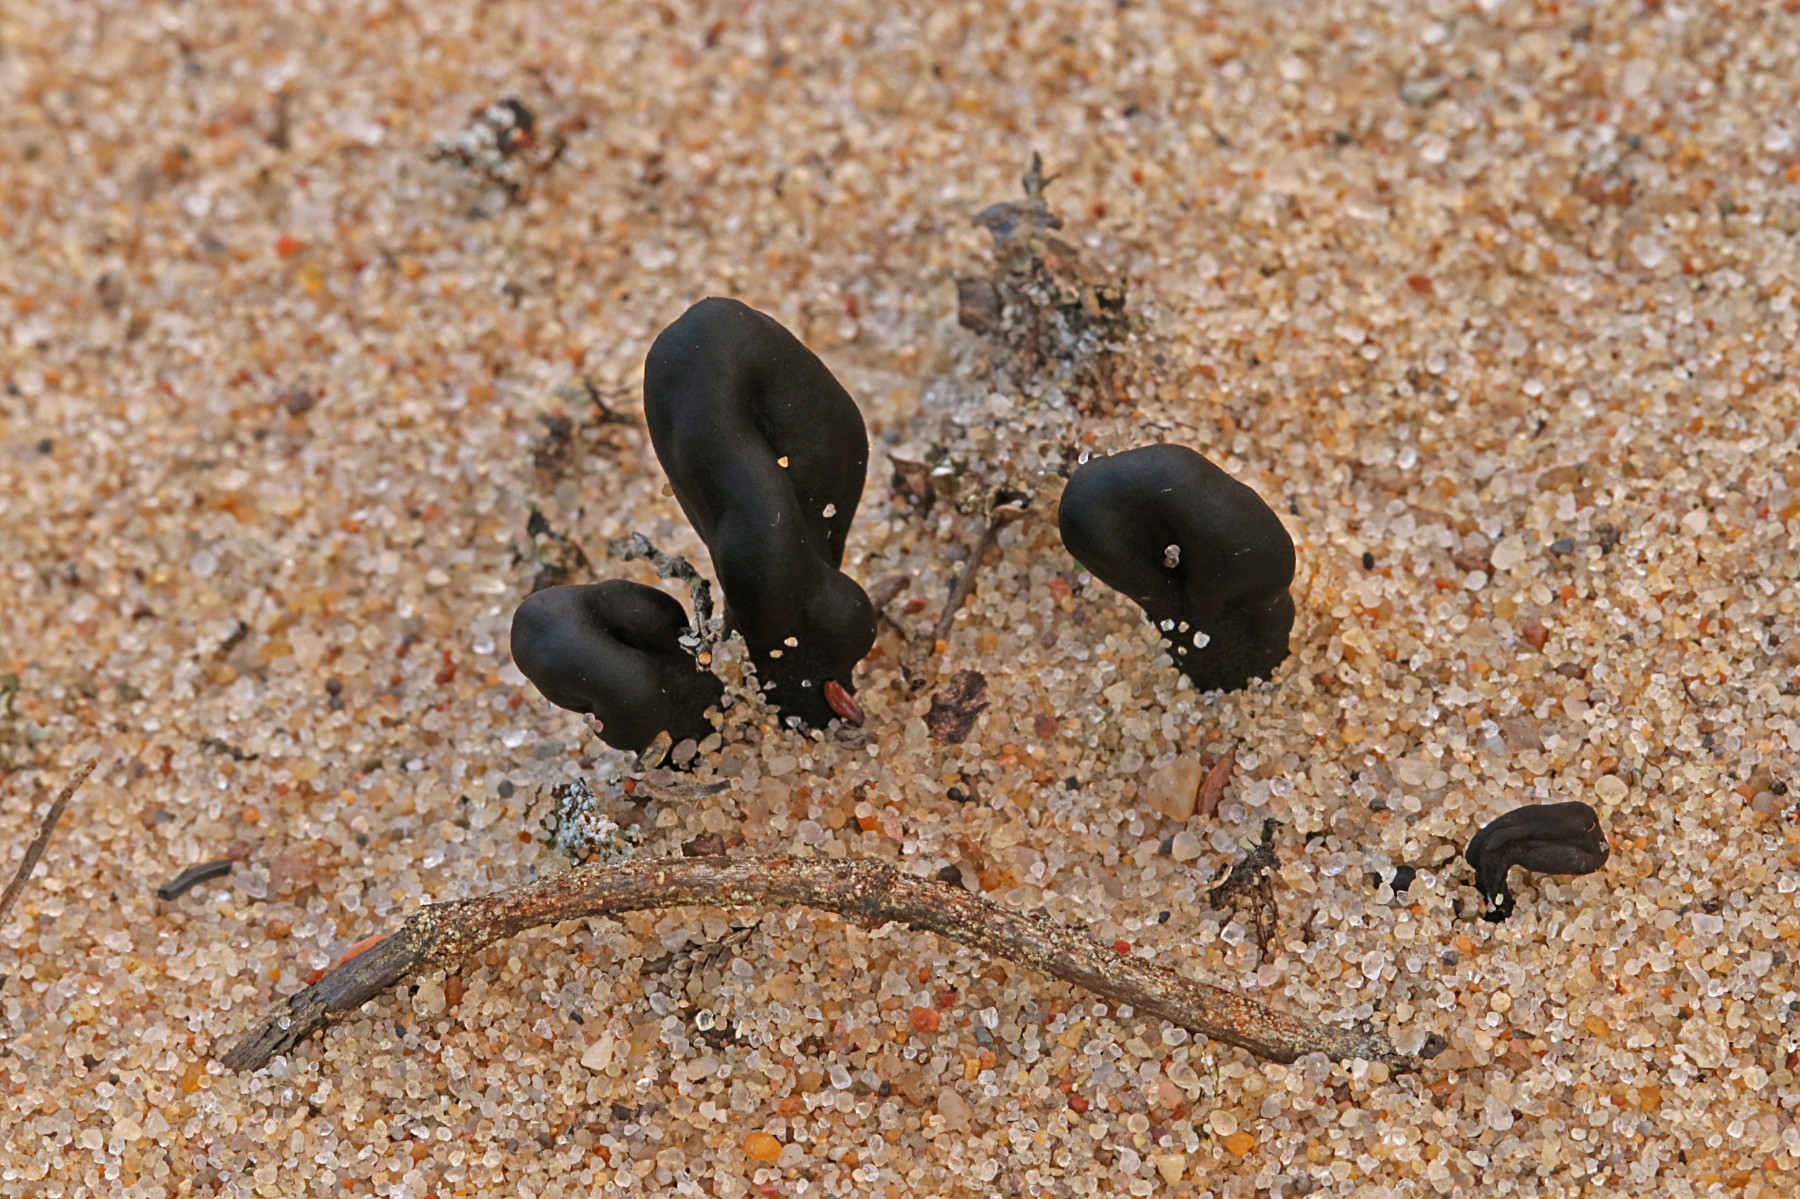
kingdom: Fungi
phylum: Ascomycota
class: Geoglossomycetes
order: Geoglossales
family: Geoglossaceae
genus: Sabuloglossum
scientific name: Sabuloglossum arenarium
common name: klit-jordtunge
